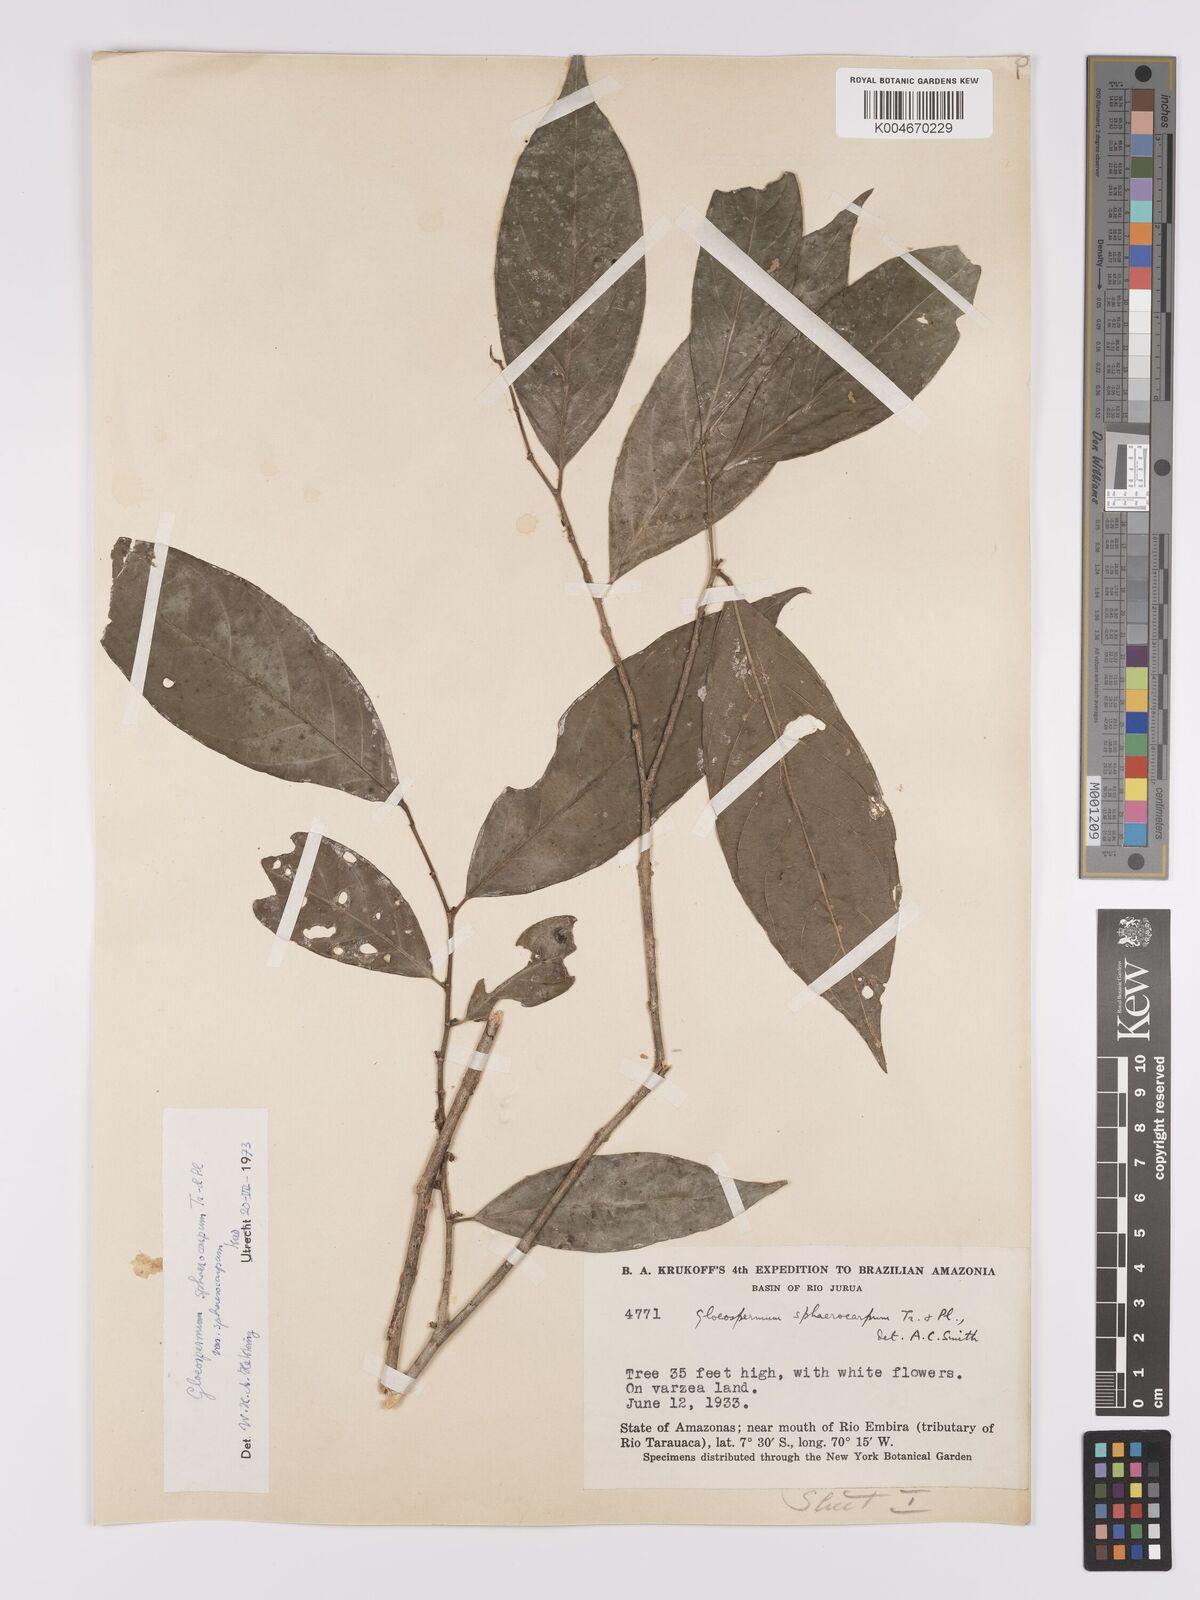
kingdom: Plantae
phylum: Tracheophyta
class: Magnoliopsida
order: Malpighiales
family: Violaceae
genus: Gloeospermum
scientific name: Gloeospermum sphaerocarpum
